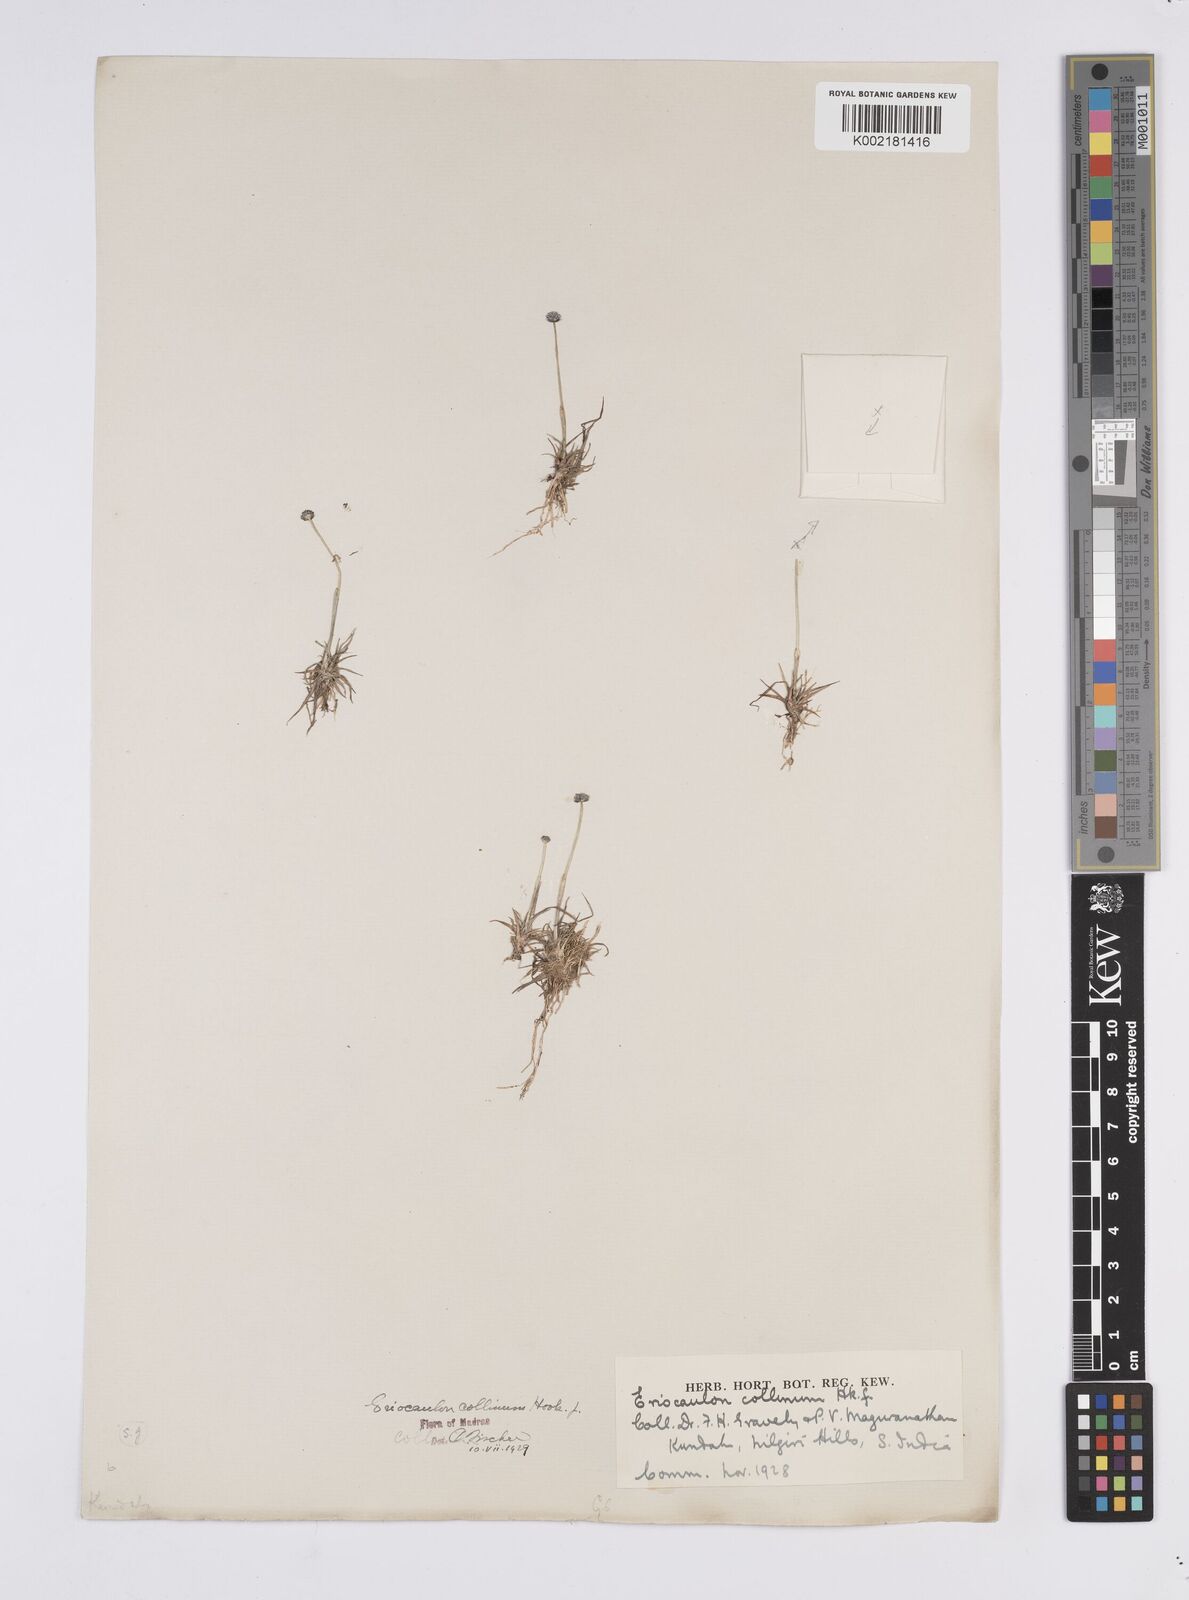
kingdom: Plantae
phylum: Tracheophyta
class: Liliopsida
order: Poales
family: Eriocaulaceae
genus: Eriocaulon
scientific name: Eriocaulon odoratum
